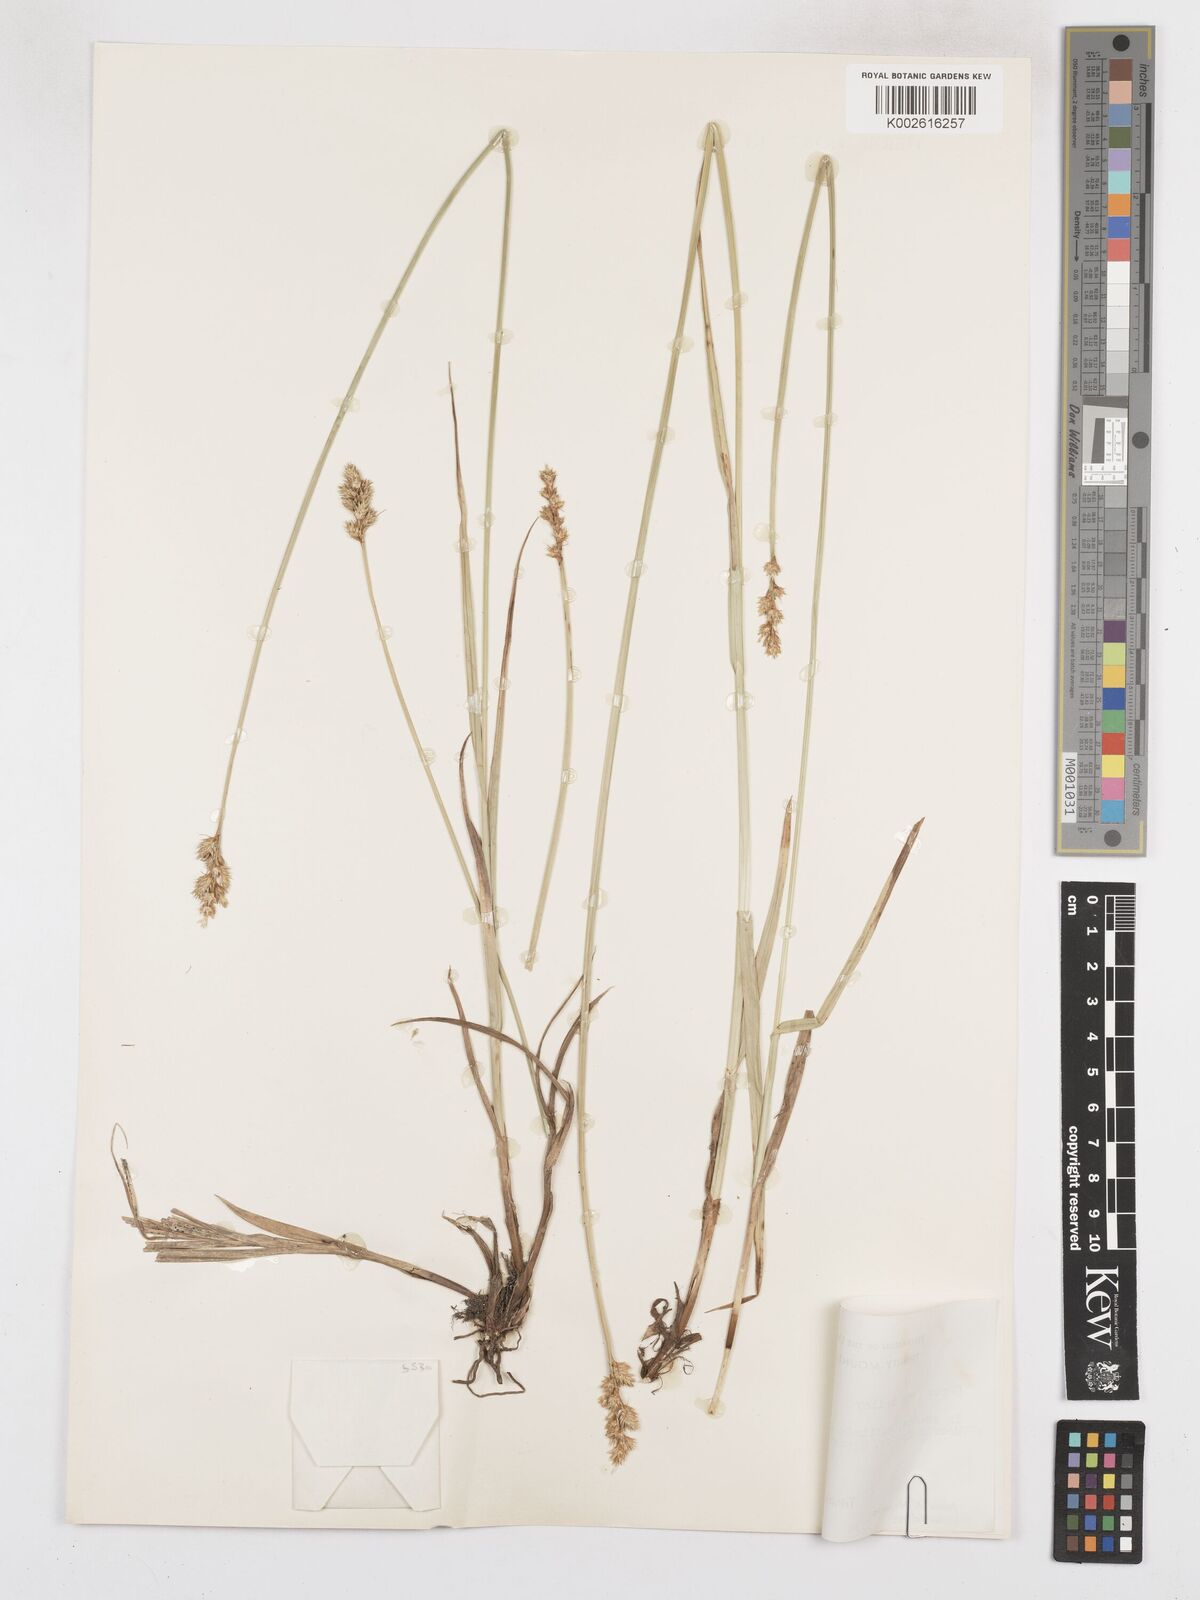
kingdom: Plantae
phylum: Tracheophyta
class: Liliopsida
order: Poales
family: Cyperaceae
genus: Carex
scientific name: Carex feta
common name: Green-sheathed sedge
